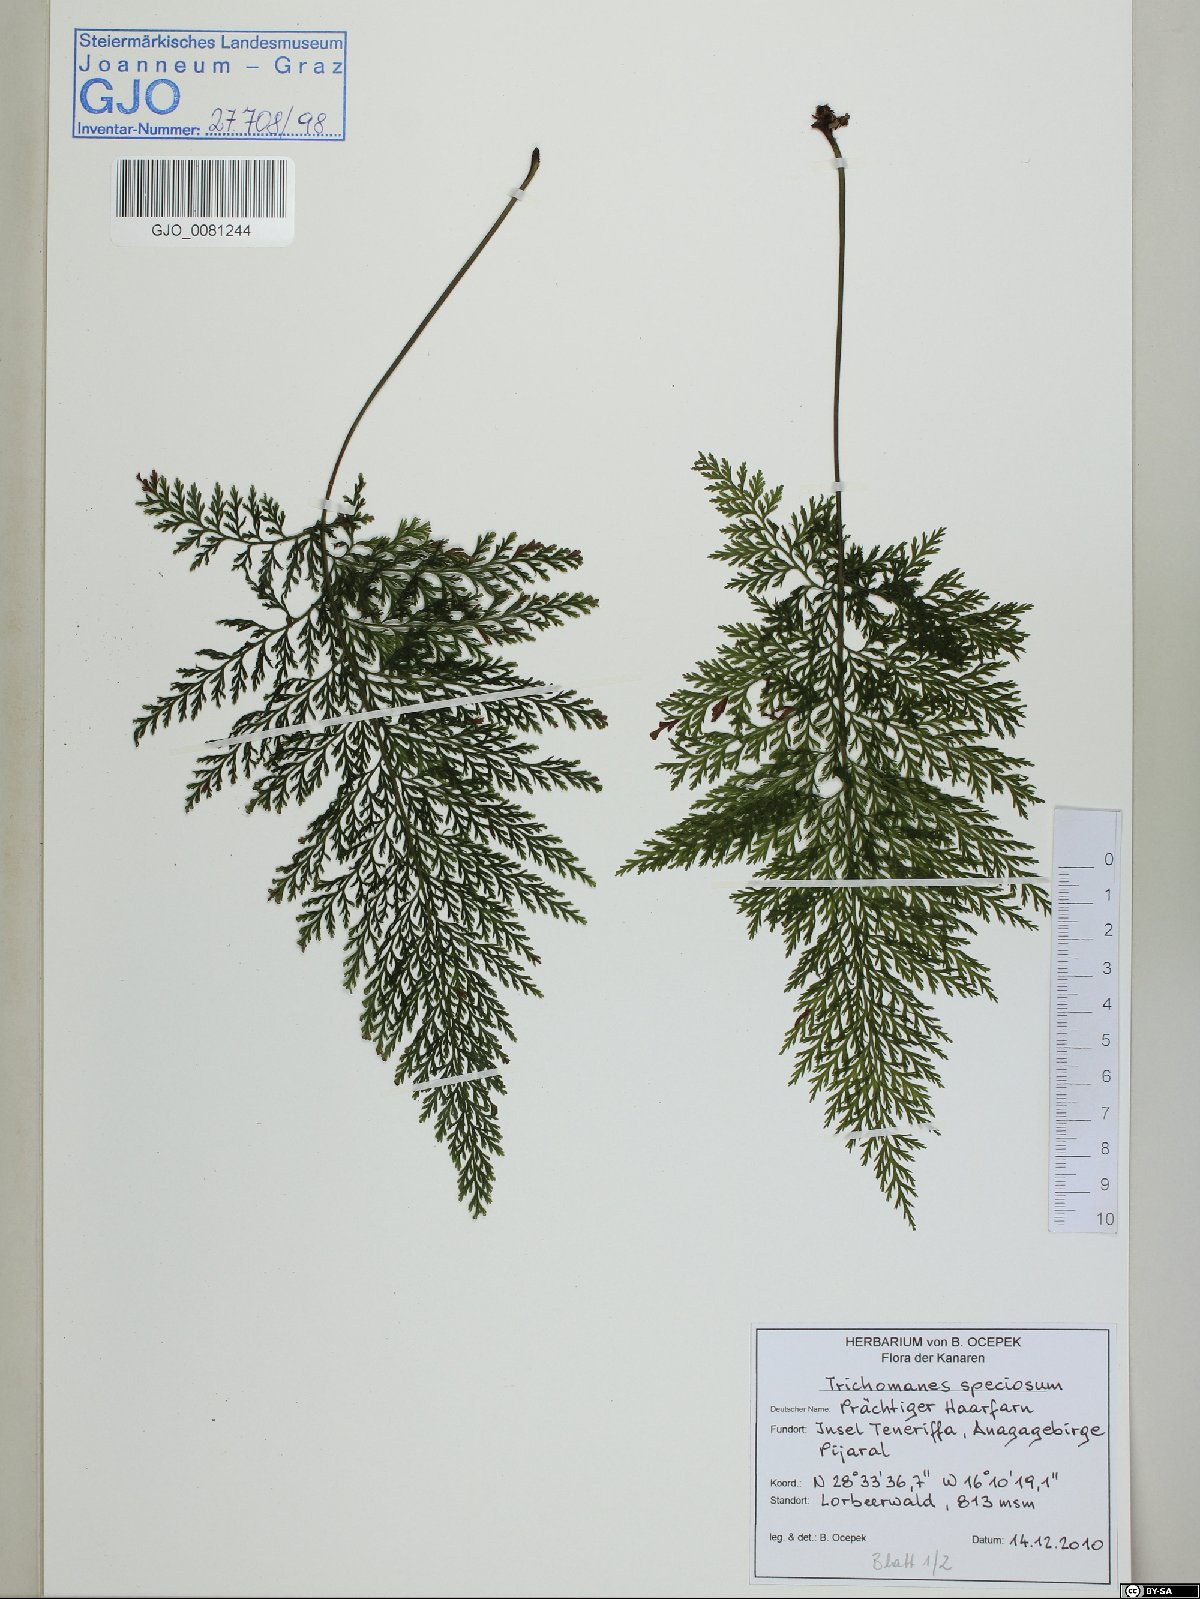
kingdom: Plantae
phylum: Tracheophyta
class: Polypodiopsida
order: Hymenophyllales
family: Hymenophyllaceae
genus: Vandenboschia
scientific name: Vandenboschia speciosa
